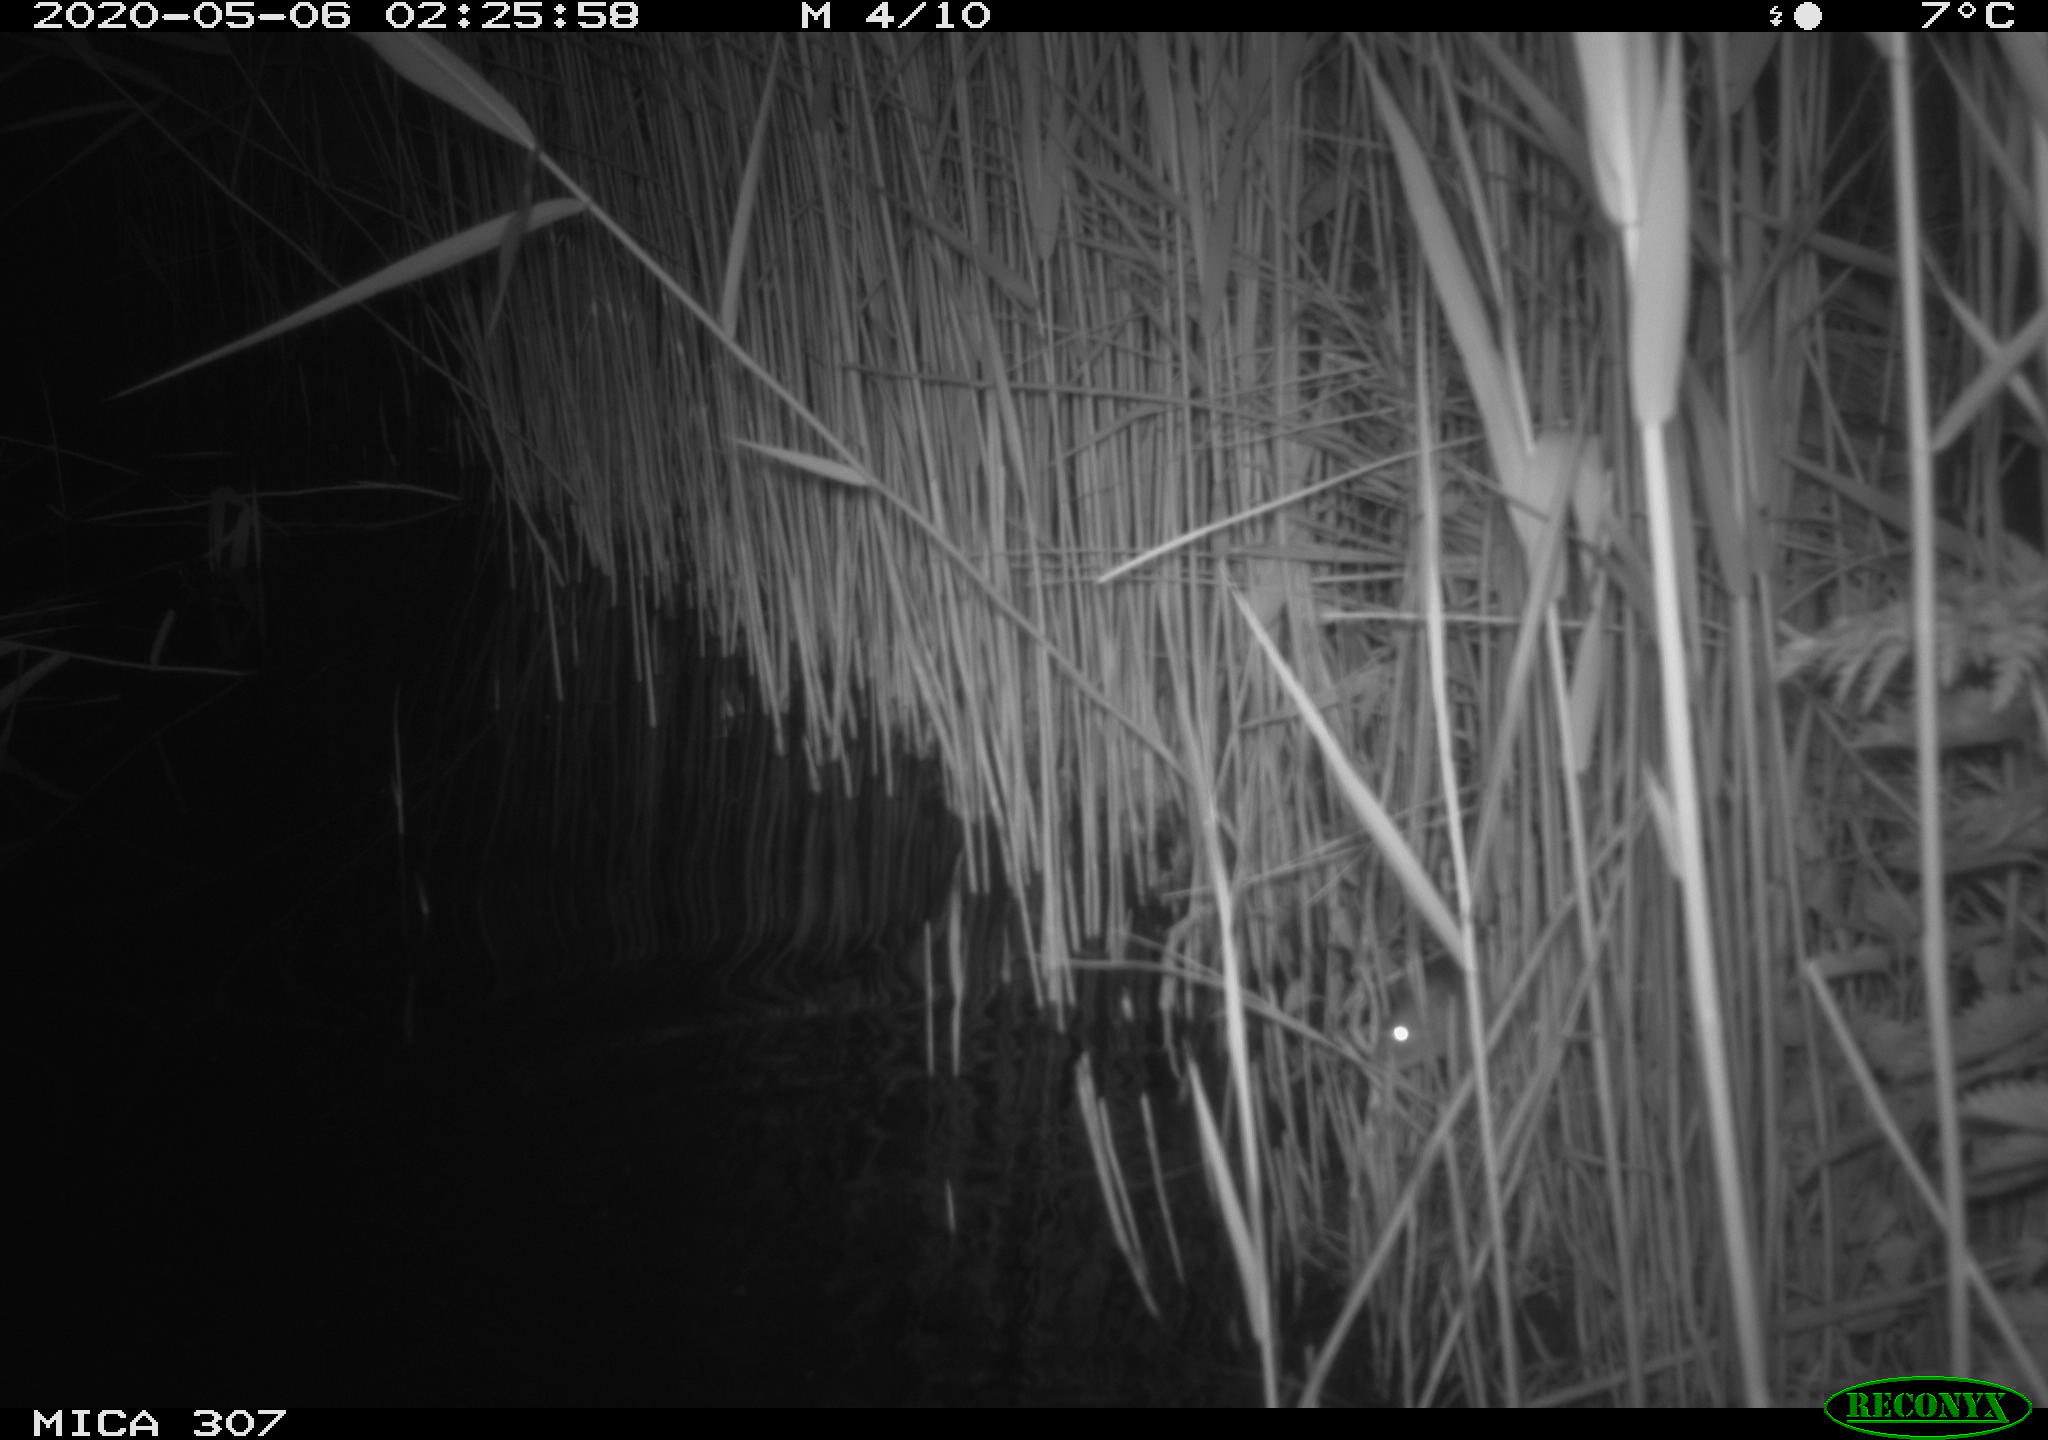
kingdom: Animalia
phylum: Chordata
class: Mammalia
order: Rodentia
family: Muridae
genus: Rattus
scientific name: Rattus norvegicus
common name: Brown rat
